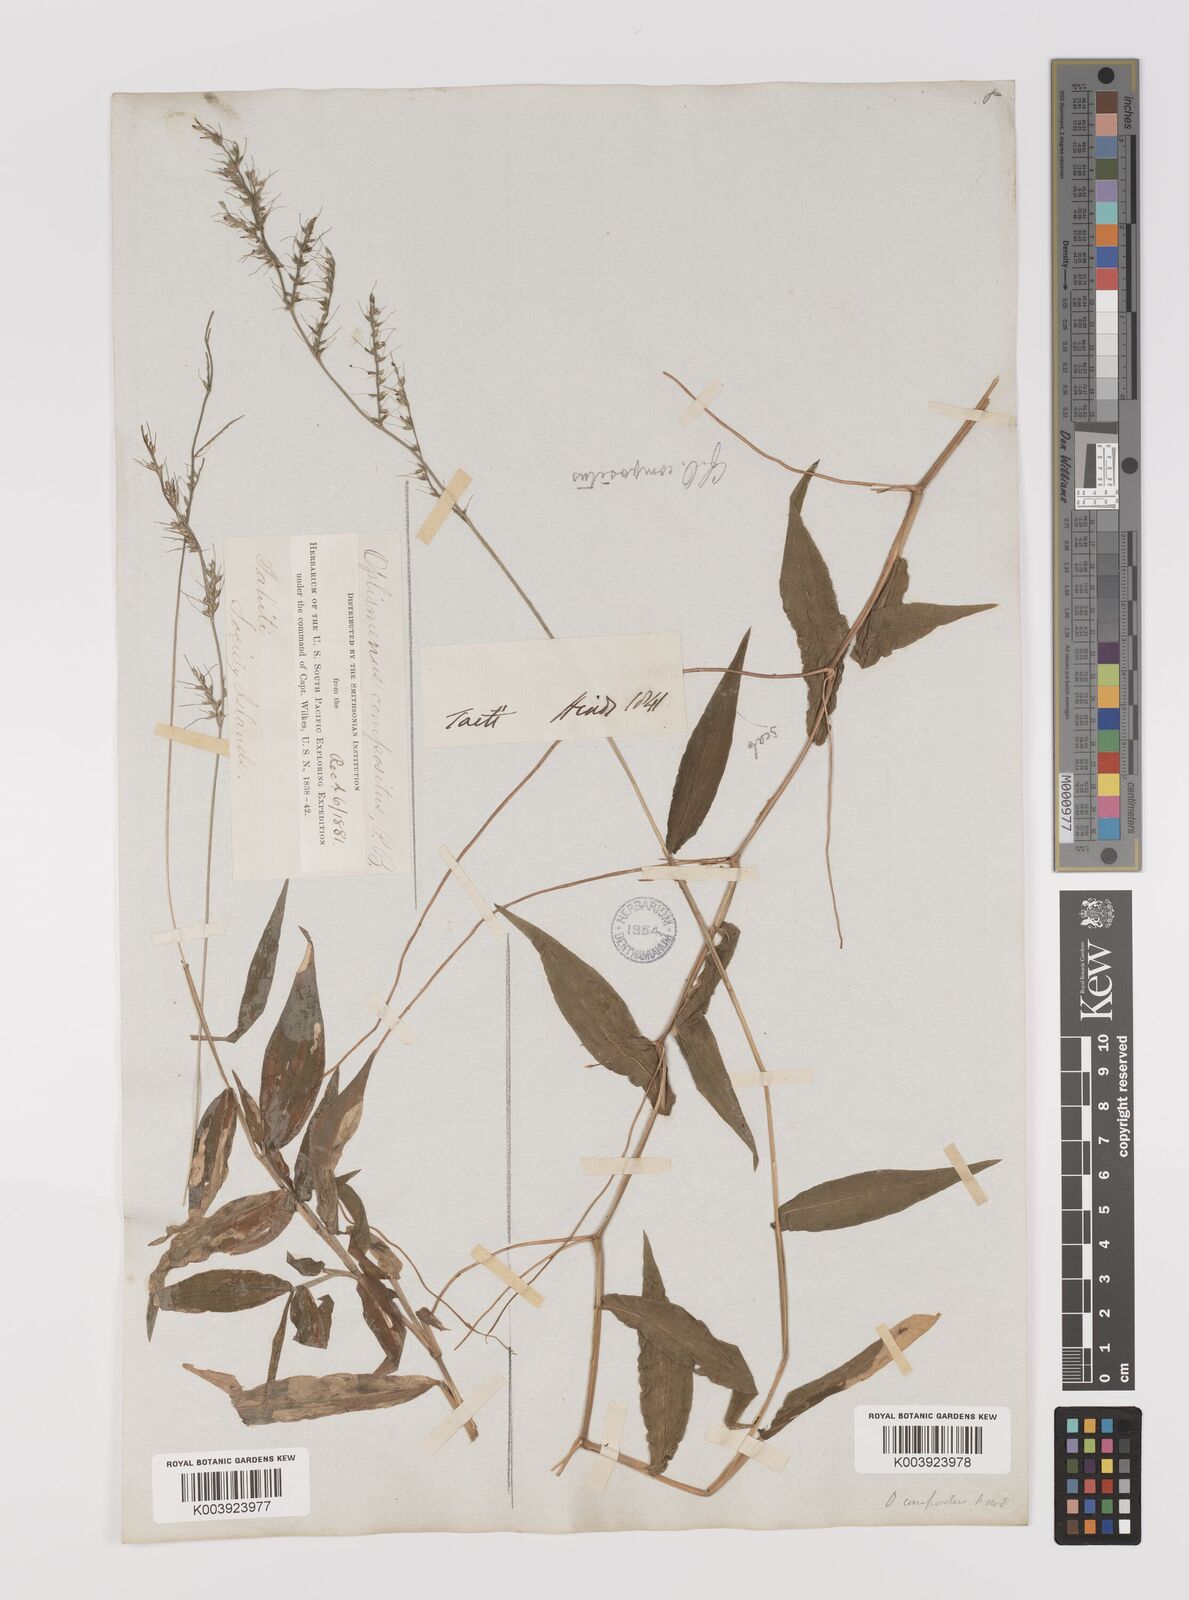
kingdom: Plantae
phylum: Tracheophyta
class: Liliopsida
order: Poales
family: Poaceae
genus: Oplismenus
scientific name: Oplismenus compositus
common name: Running mountain grass
